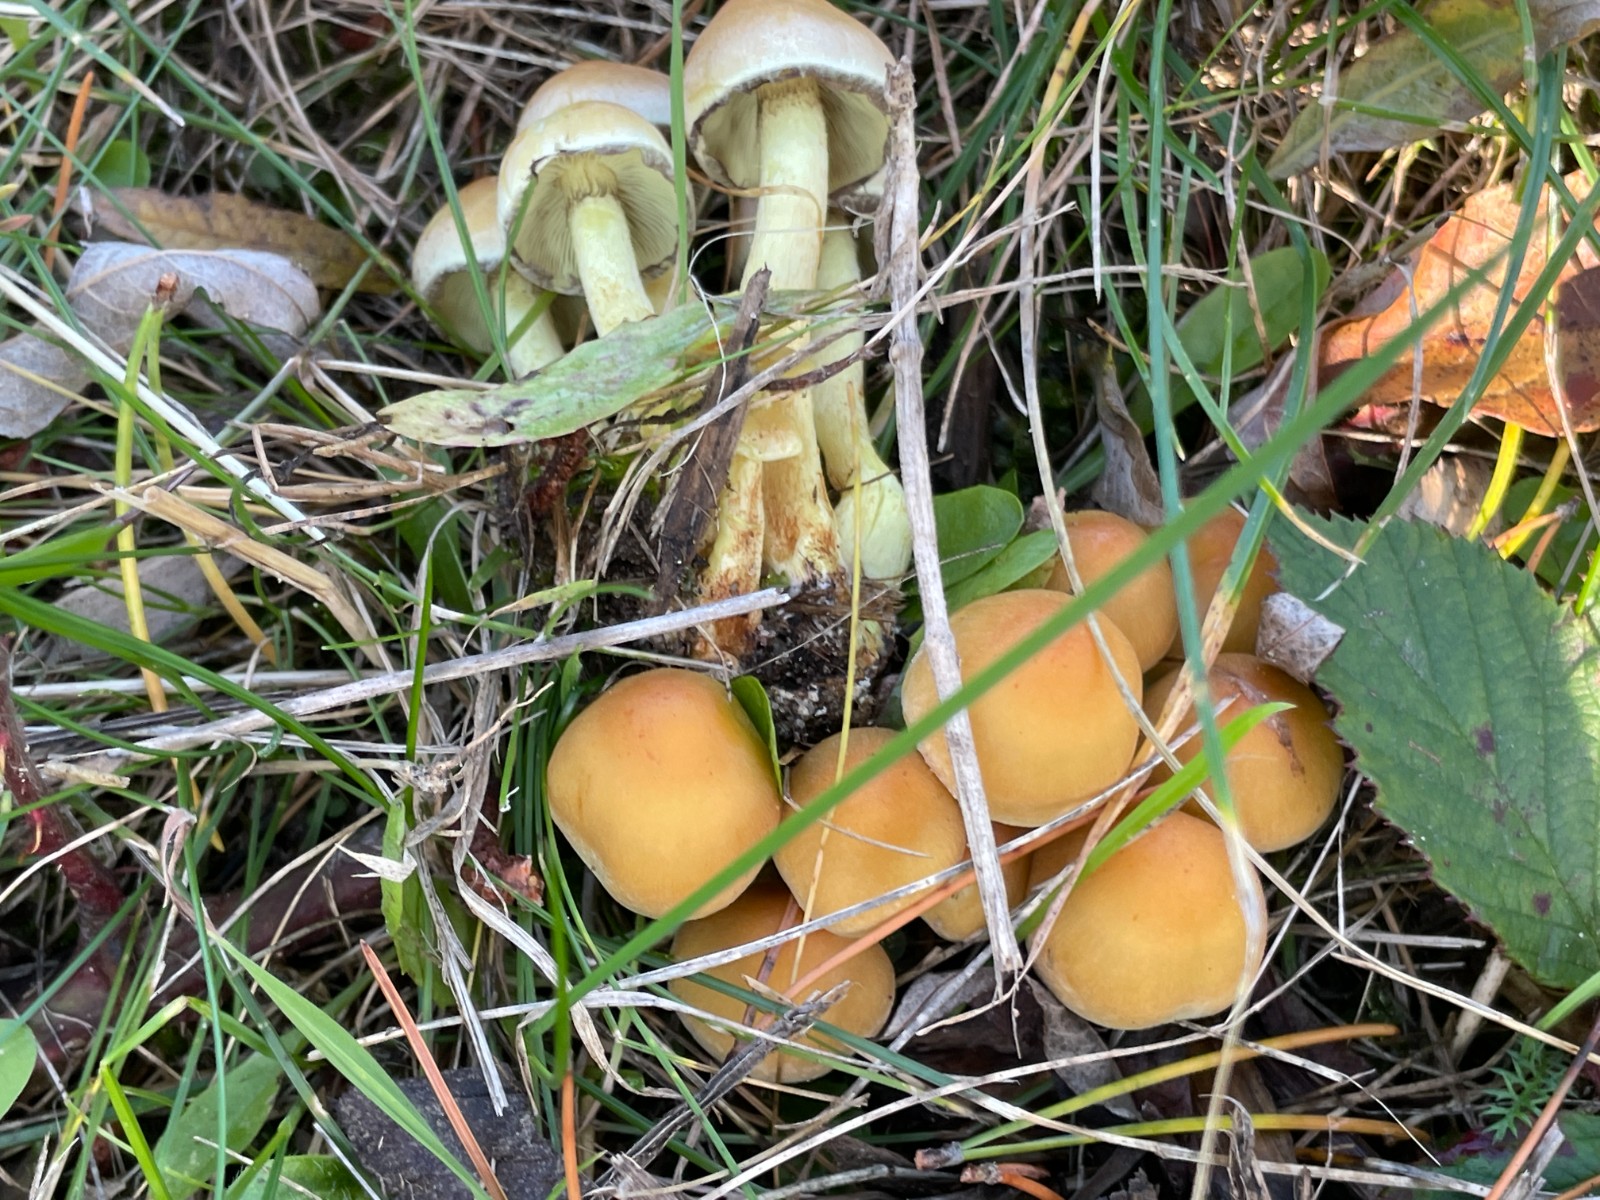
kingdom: Fungi
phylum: Basidiomycota
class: Agaricomycetes
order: Agaricales
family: Strophariaceae
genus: Hypholoma
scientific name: Hypholoma fasciculare
